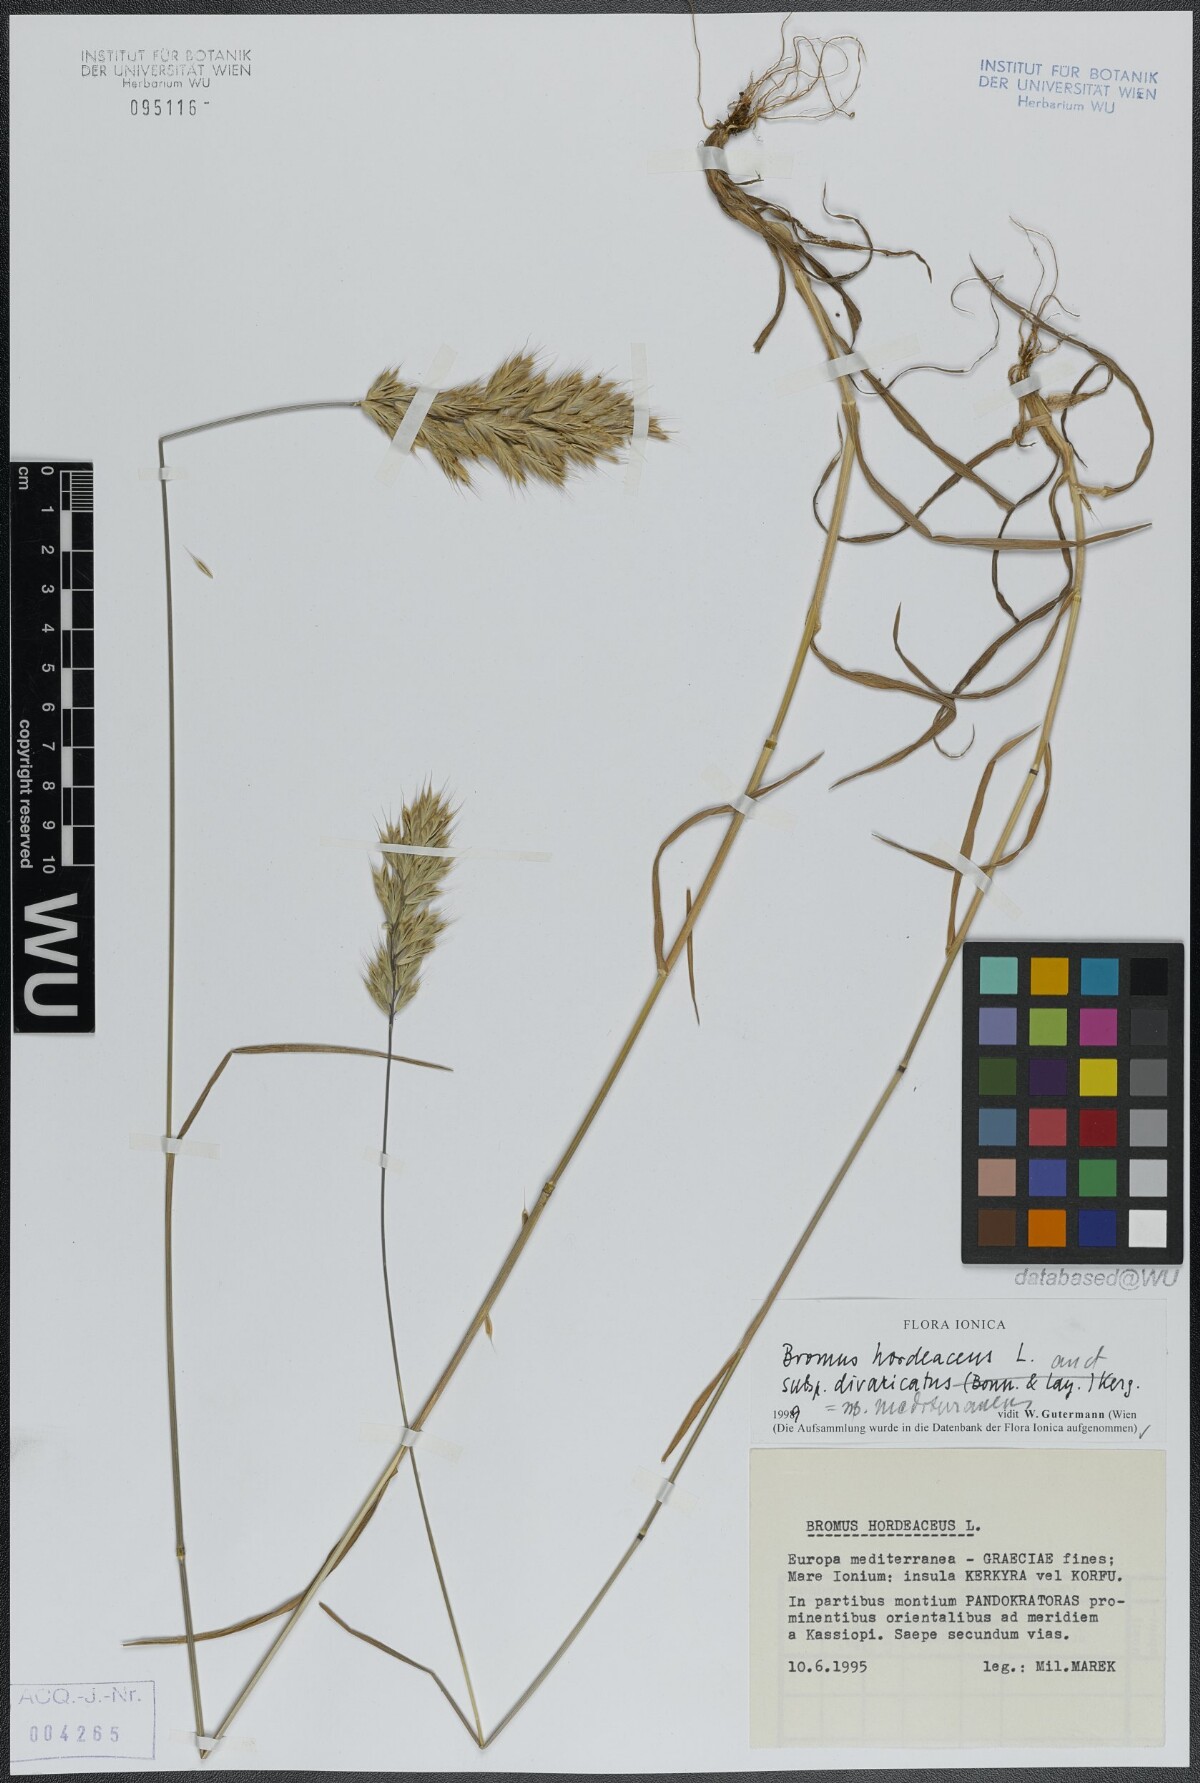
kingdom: Plantae
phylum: Tracheophyta
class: Liliopsida
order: Poales
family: Poaceae
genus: Bromus
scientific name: Bromus hordeaceus
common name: Soft brome
